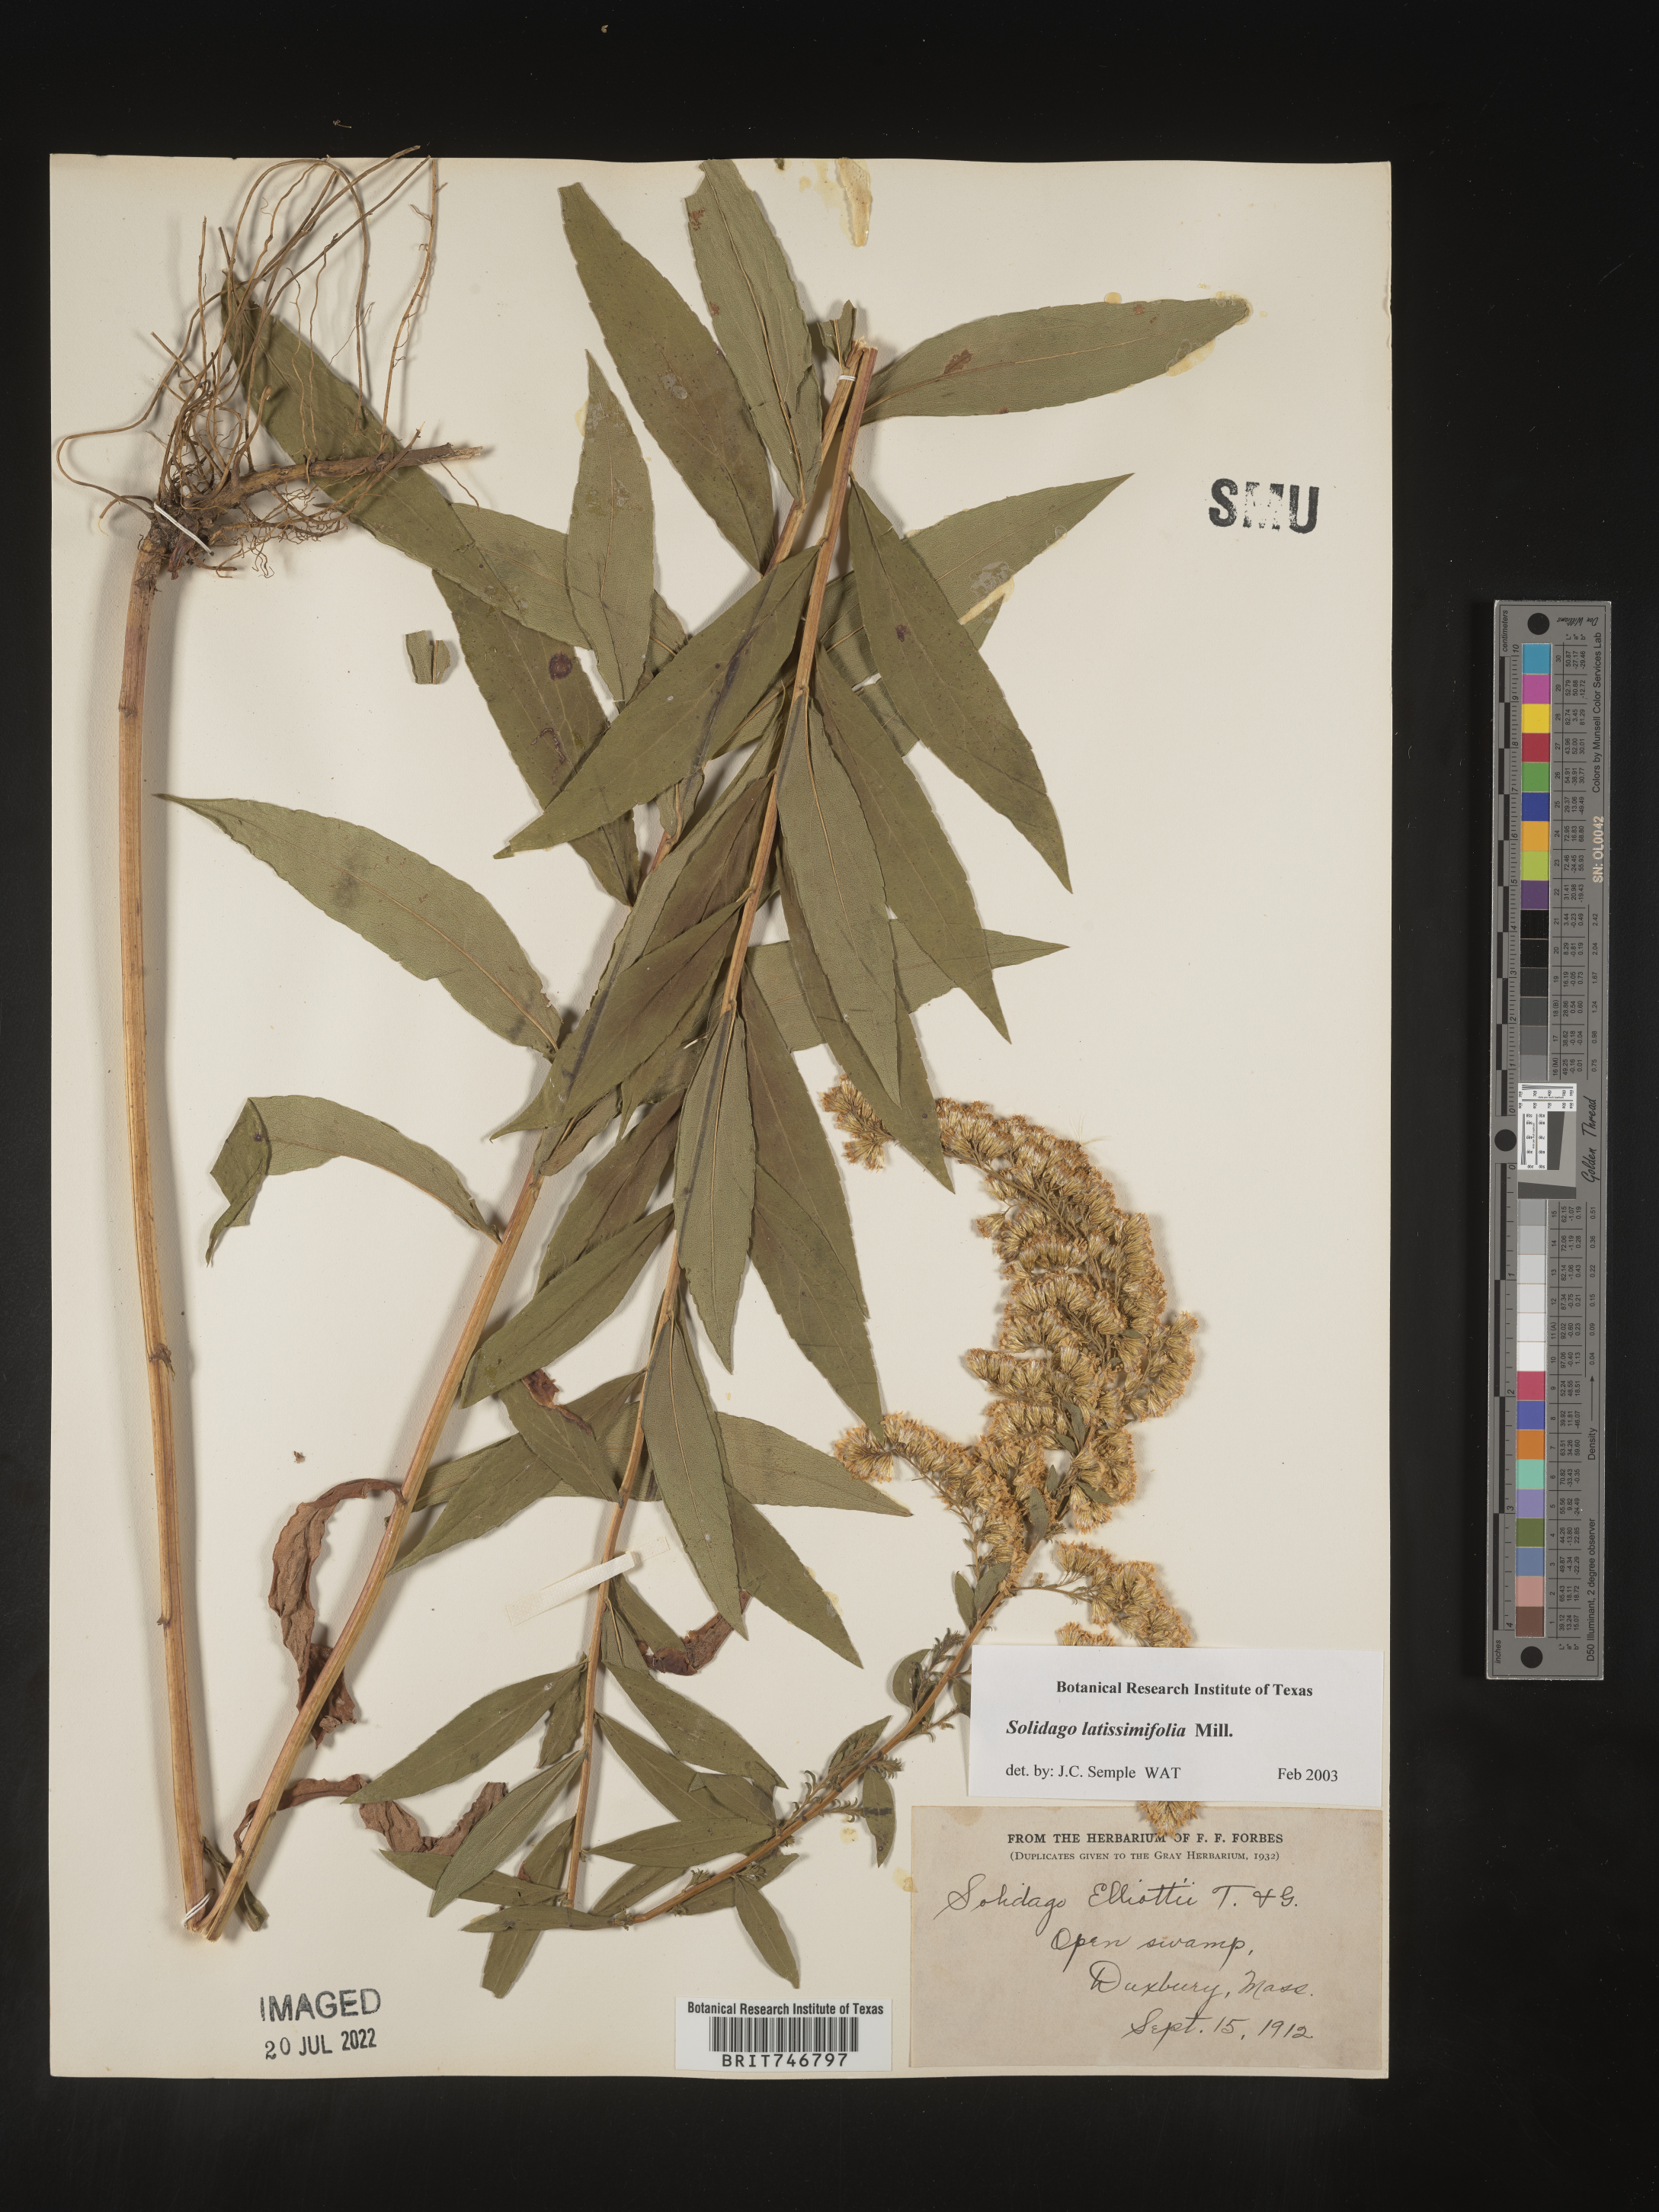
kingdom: Plantae
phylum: Tracheophyta
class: Magnoliopsida
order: Asterales
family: Asteraceae
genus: Solidago
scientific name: Solidago latissimifolia
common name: Elliott's goldenrod
